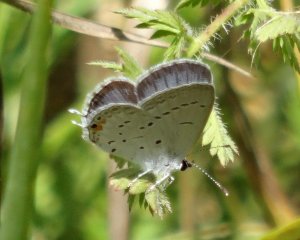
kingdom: Animalia
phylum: Arthropoda
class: Insecta
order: Lepidoptera
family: Lycaenidae
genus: Elkalyce
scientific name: Elkalyce comyntas
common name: Eastern Tailed-Blue
